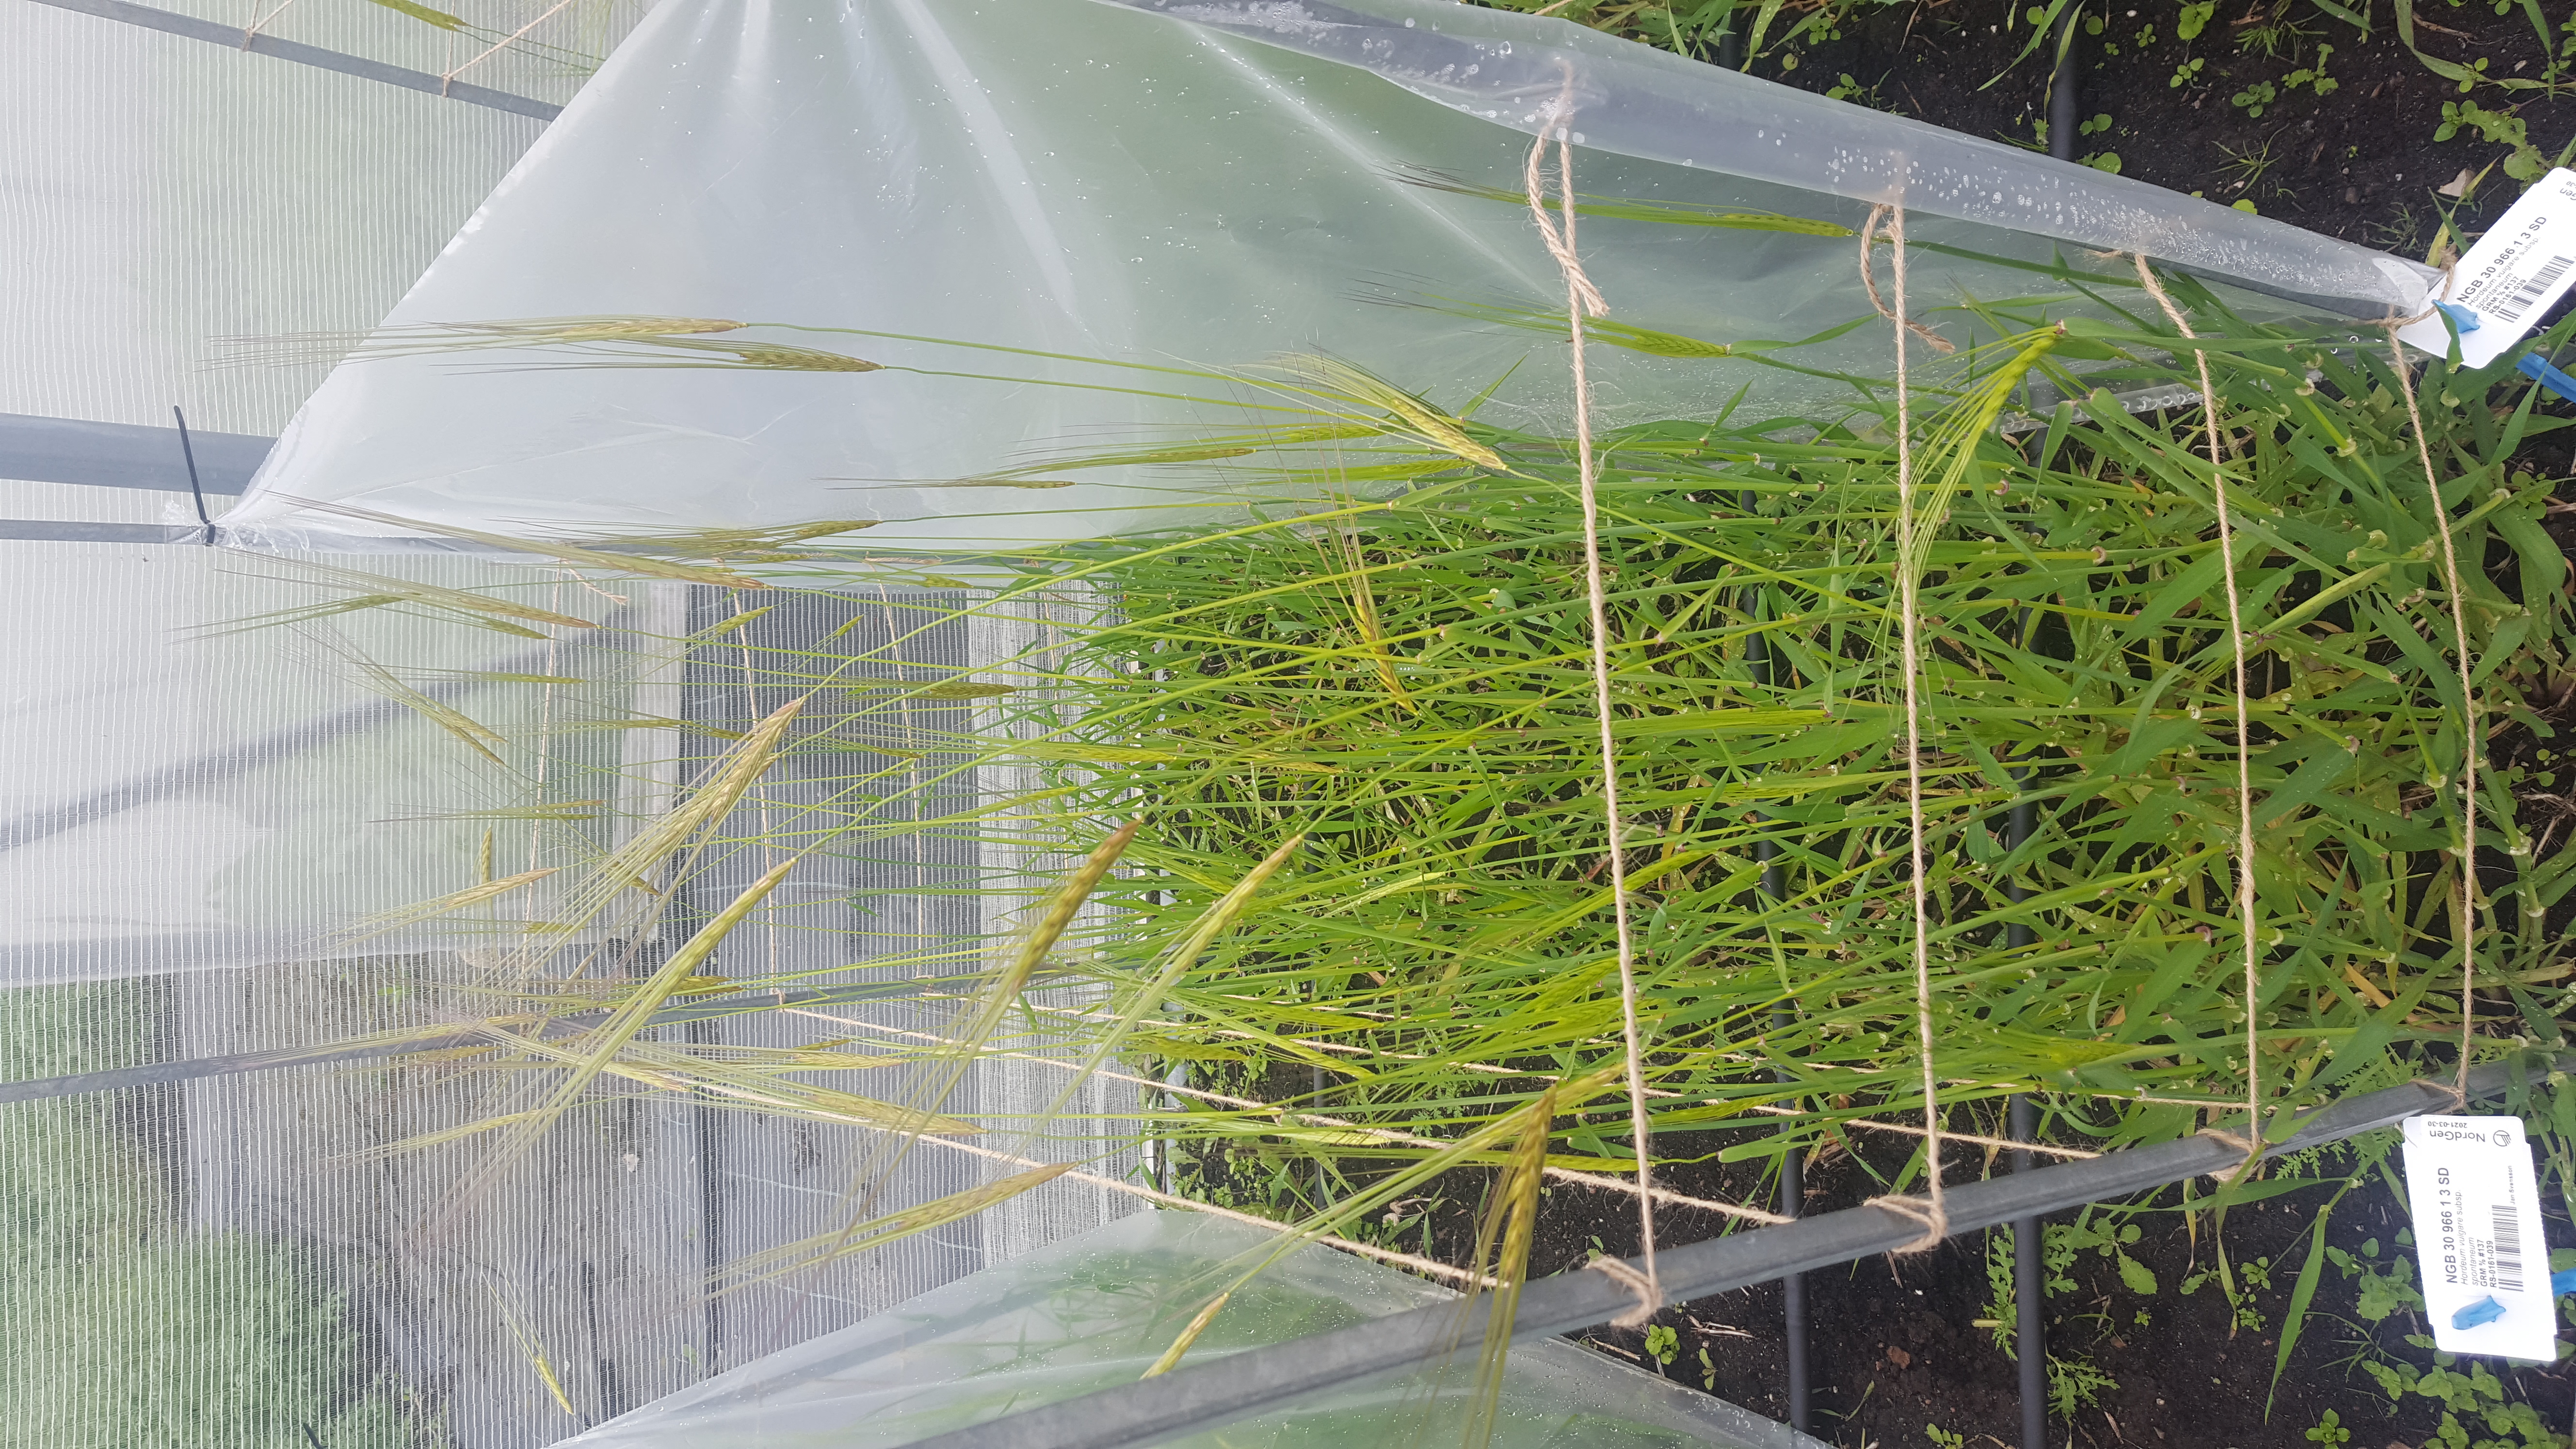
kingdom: Plantae
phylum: Tracheophyta
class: Liliopsida
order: Poales
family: Poaceae
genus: Hordeum
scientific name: Hordeum spontaneum
